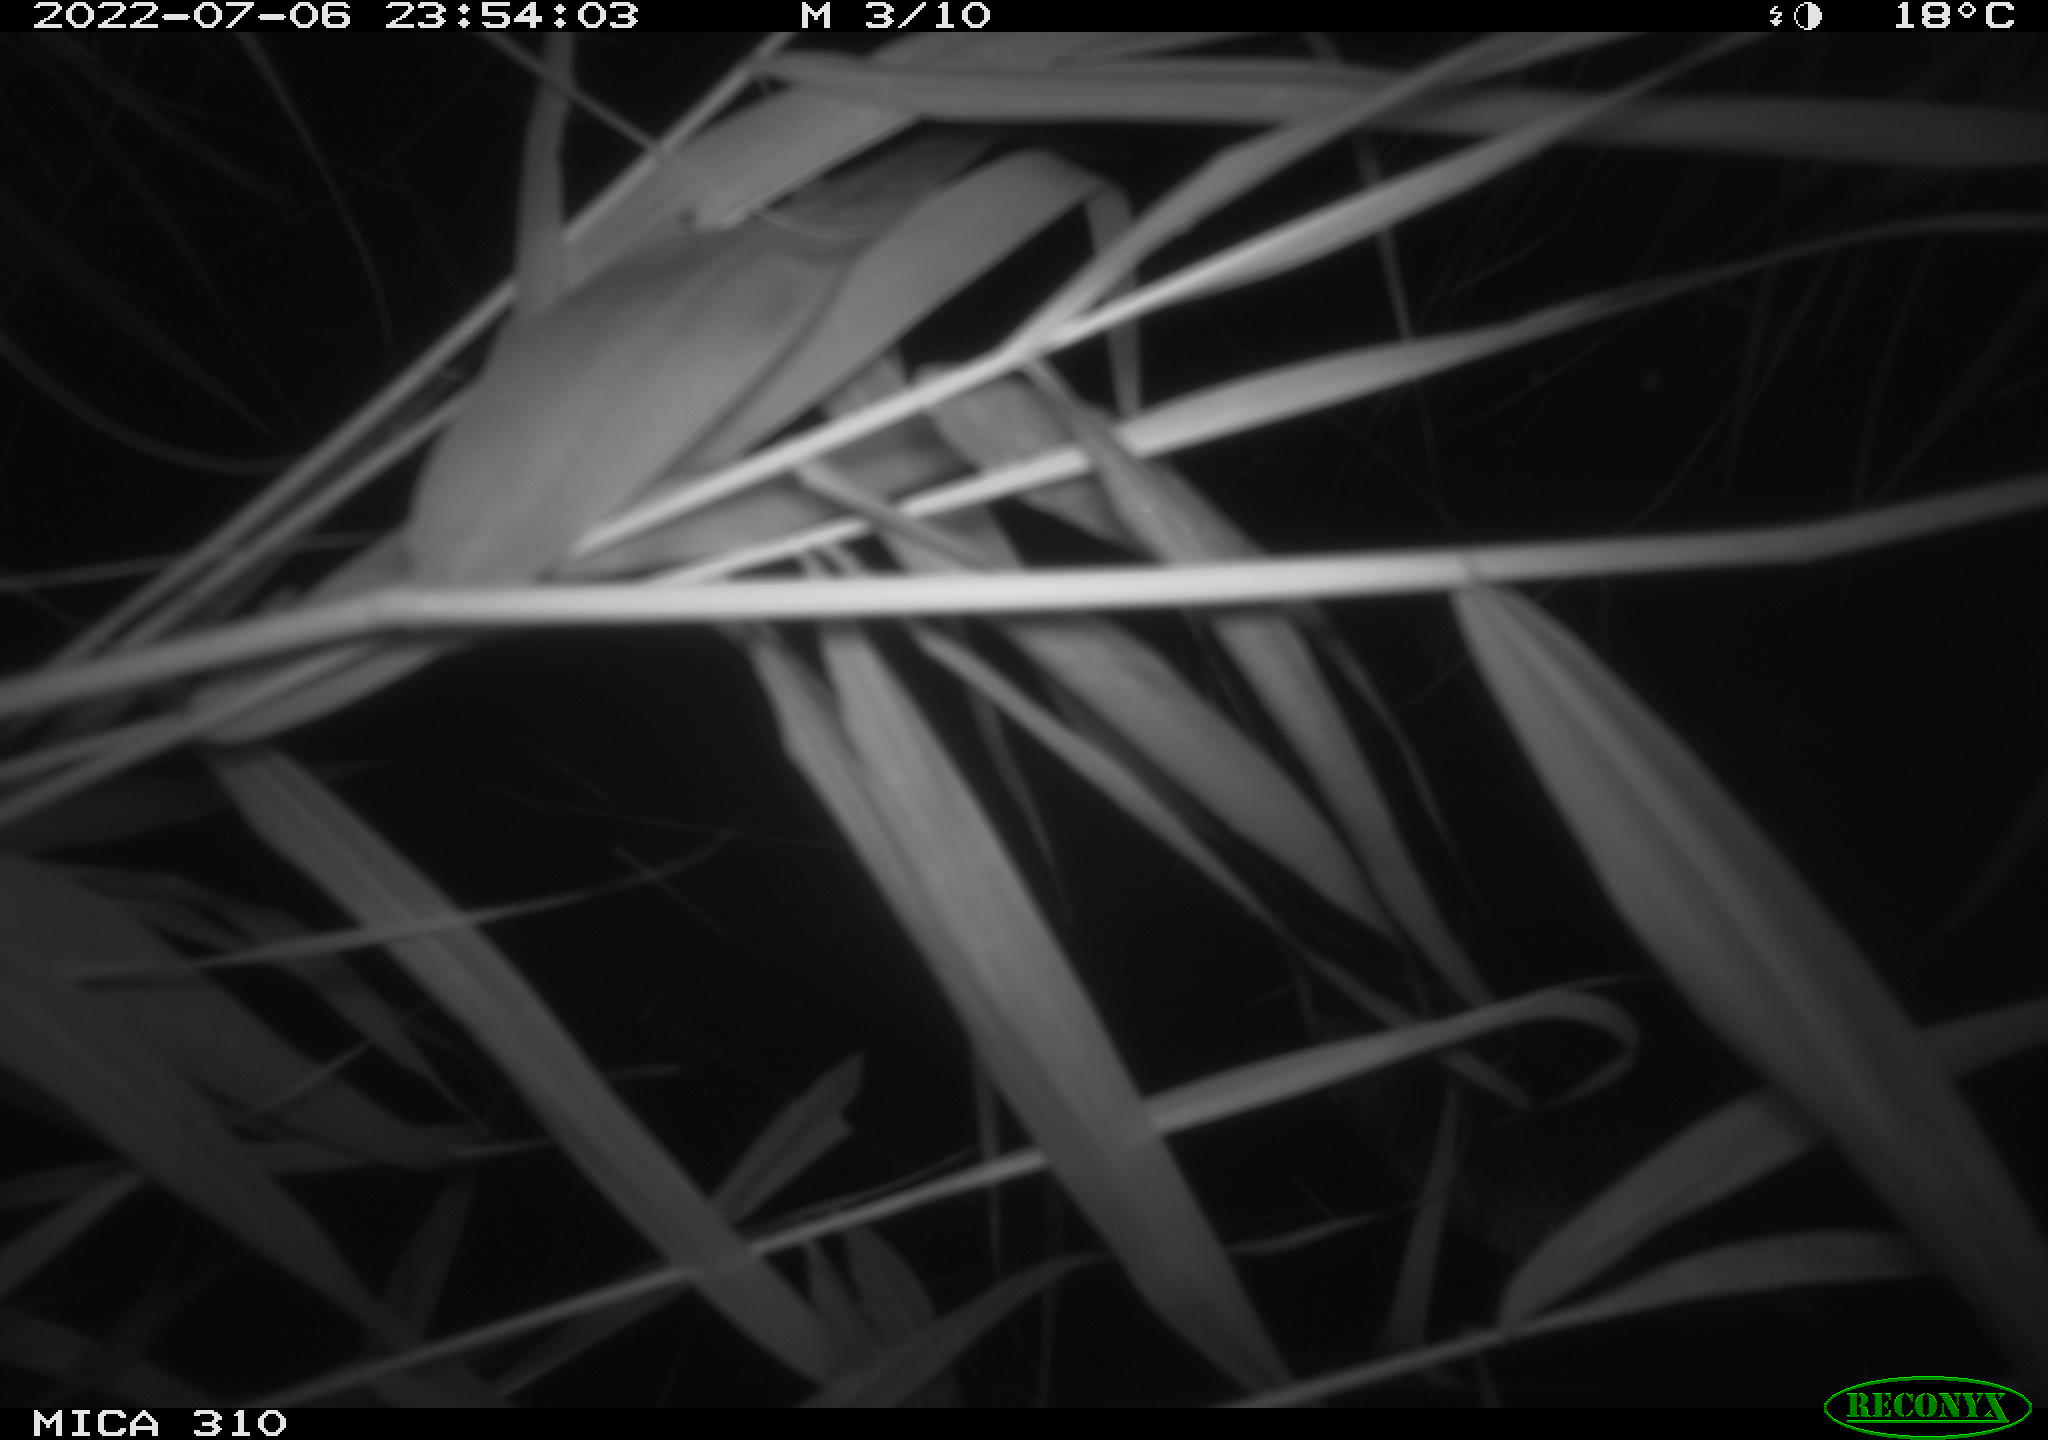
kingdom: Animalia
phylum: Chordata
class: Aves
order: Anseriformes
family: Anatidae
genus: Anas
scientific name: Anas platyrhynchos
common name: Mallard
